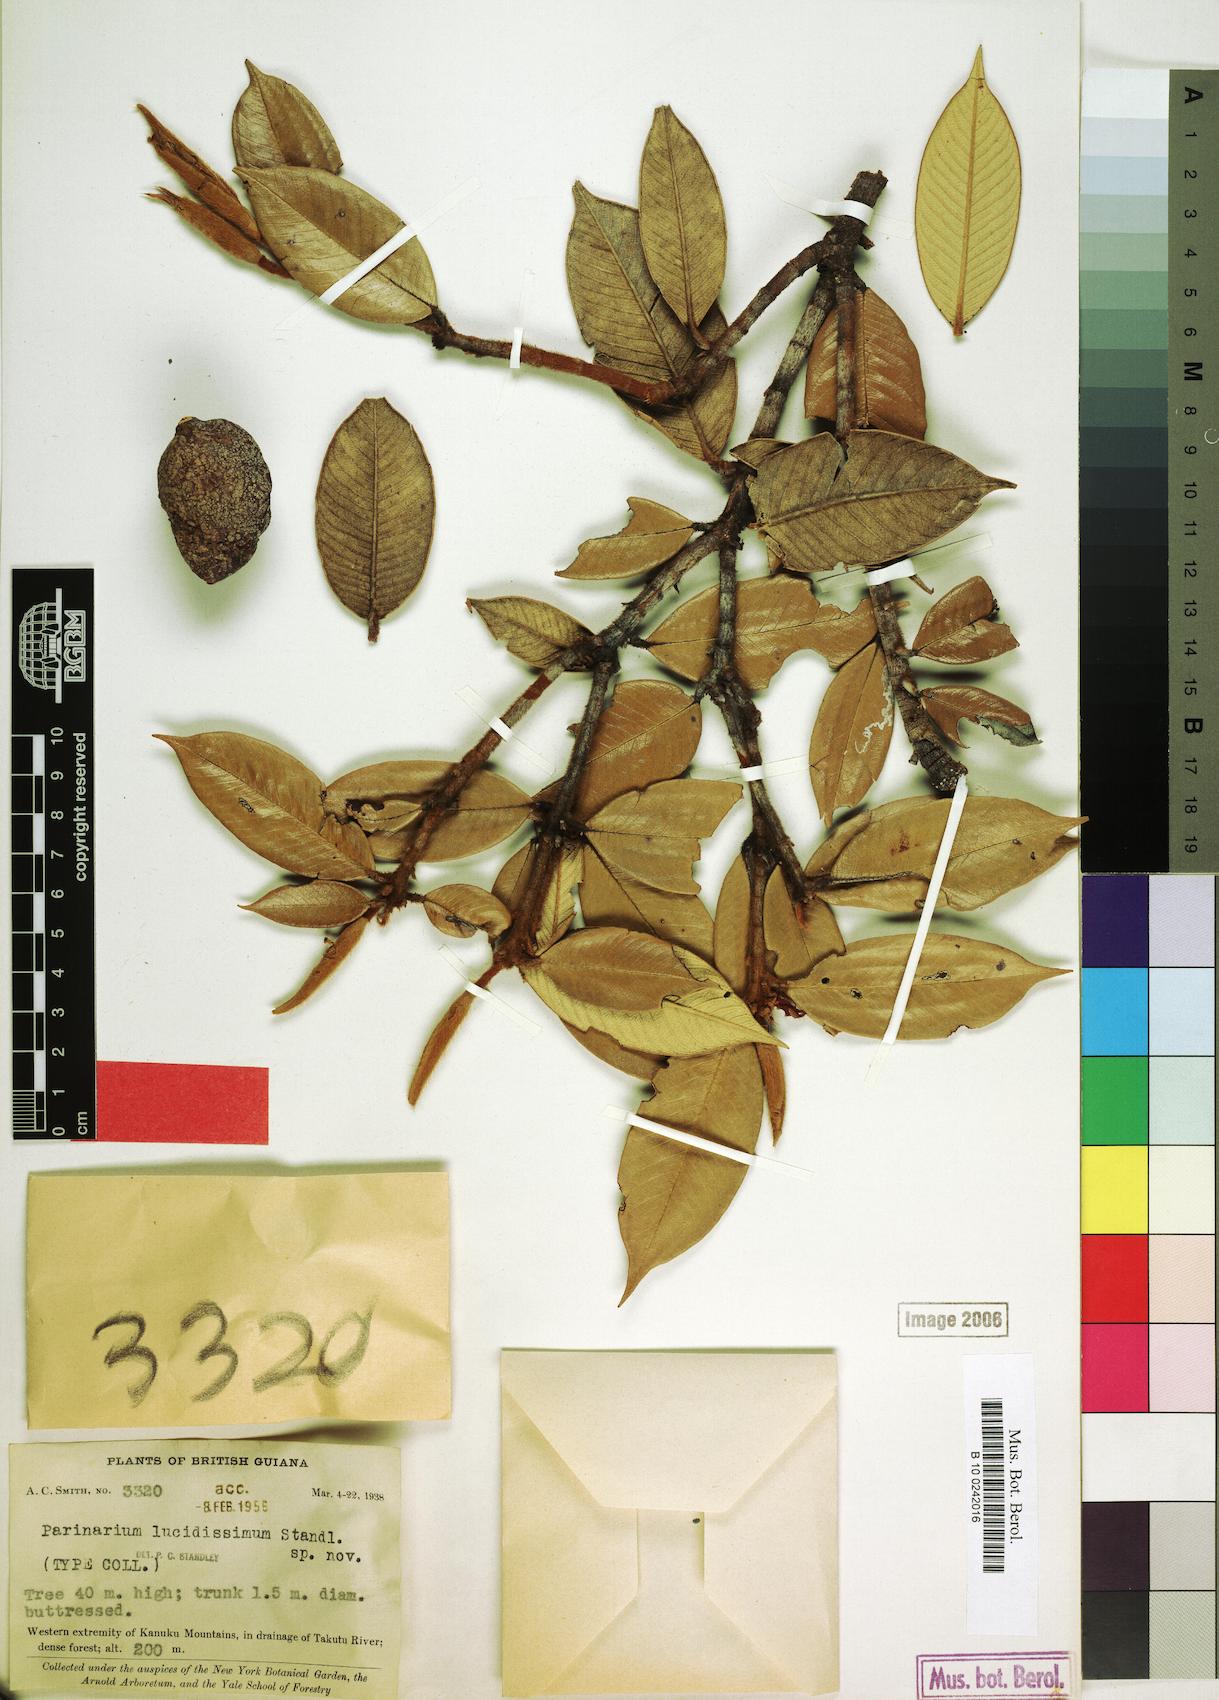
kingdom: Plantae
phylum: Tracheophyta
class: Magnoliopsida
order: Malpighiales
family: Chrysobalanaceae
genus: Parinari
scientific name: Parinari rodolphii
